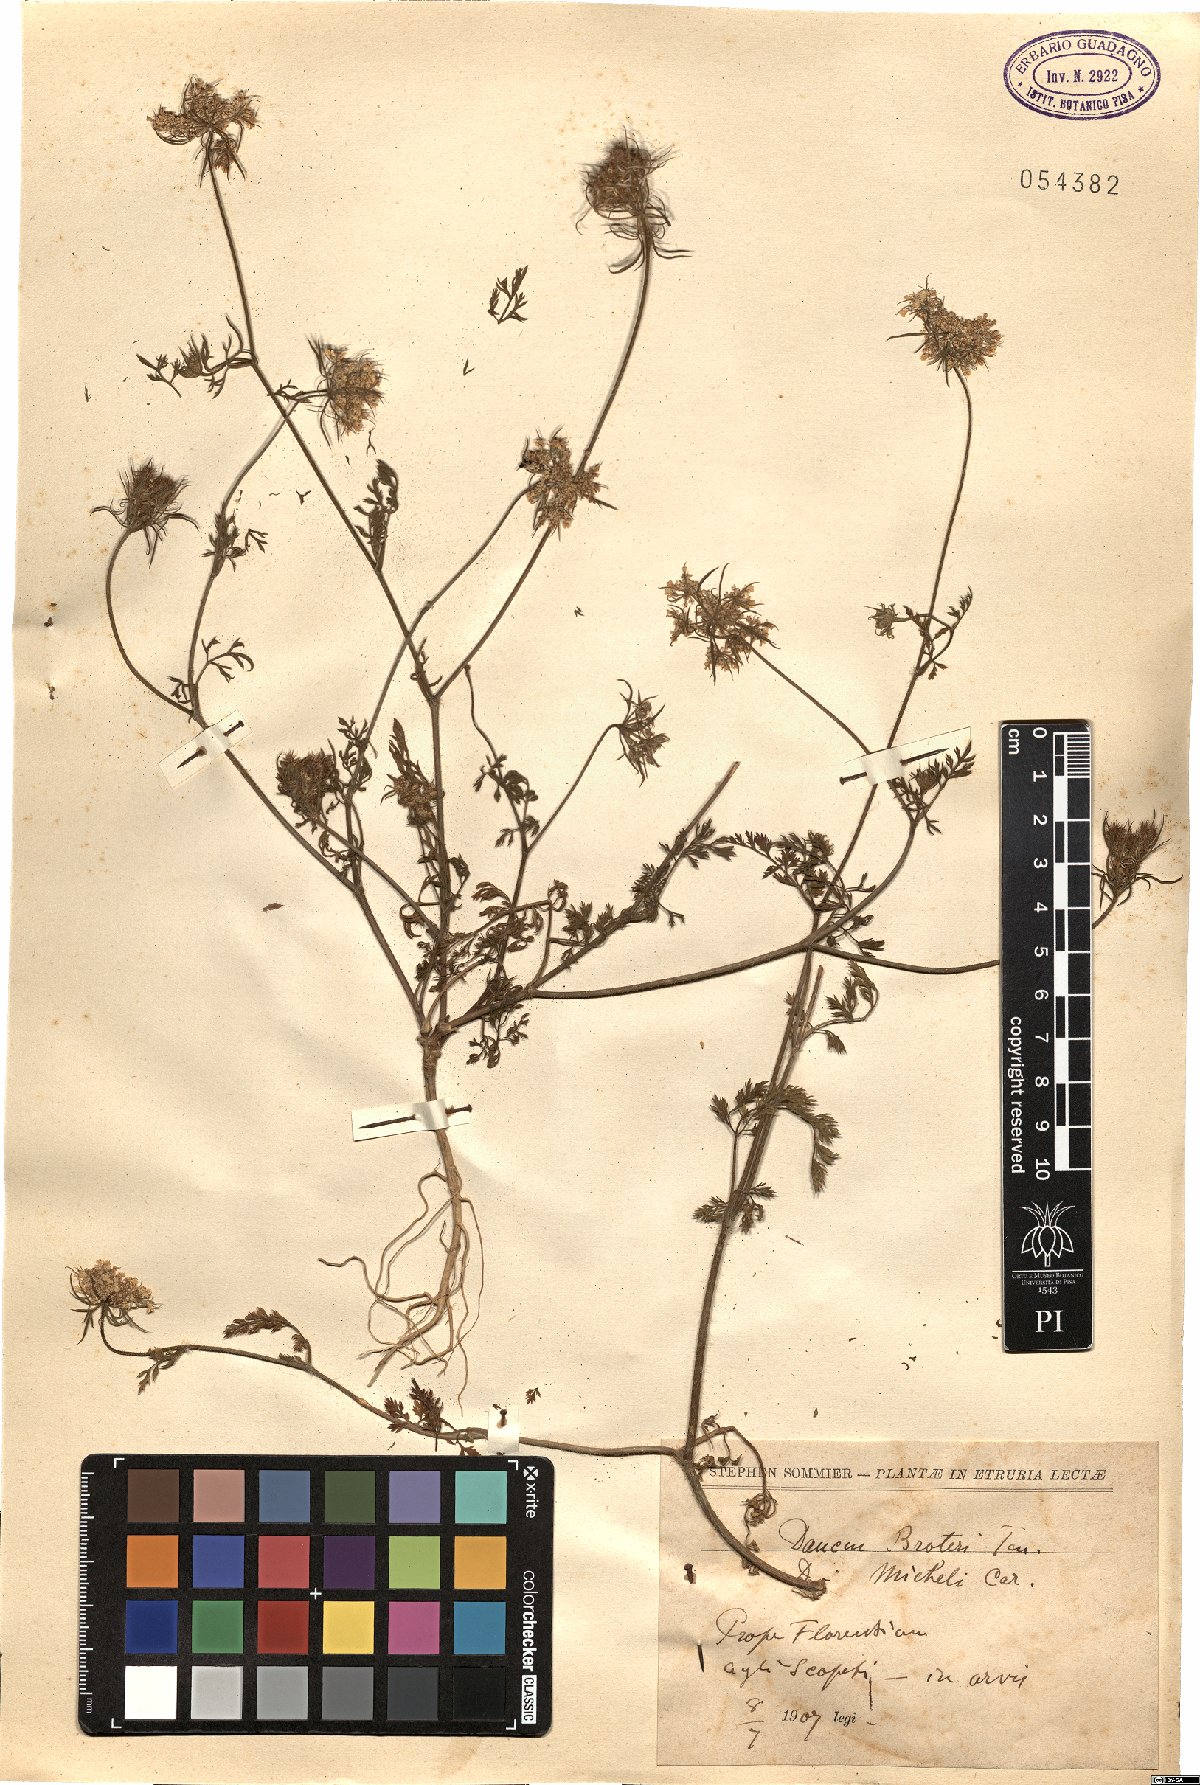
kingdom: Plantae
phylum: Tracheophyta
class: Magnoliopsida
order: Apiales
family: Apiaceae
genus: Daucus
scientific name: Daucus broteroi
